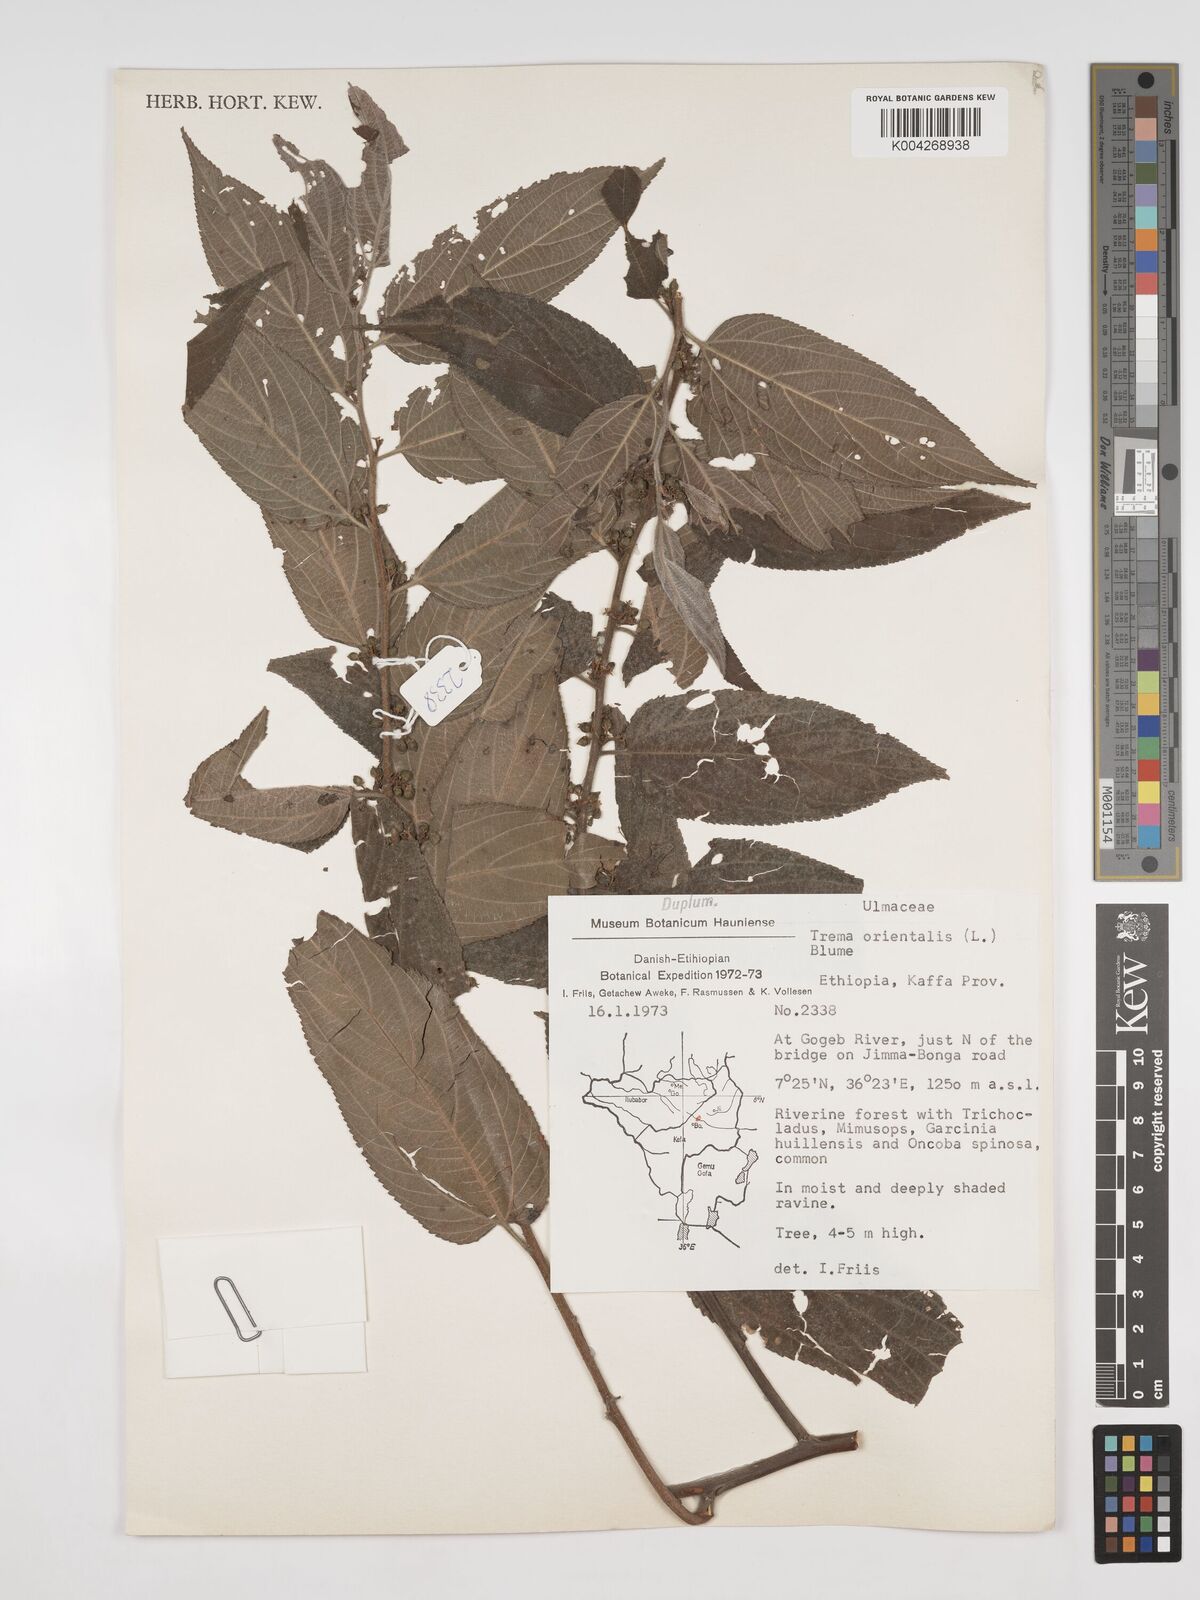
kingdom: Plantae
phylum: Tracheophyta
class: Magnoliopsida
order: Rosales
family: Cannabaceae
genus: Trema
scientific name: Trema orientale
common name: Indian charcoal tree
